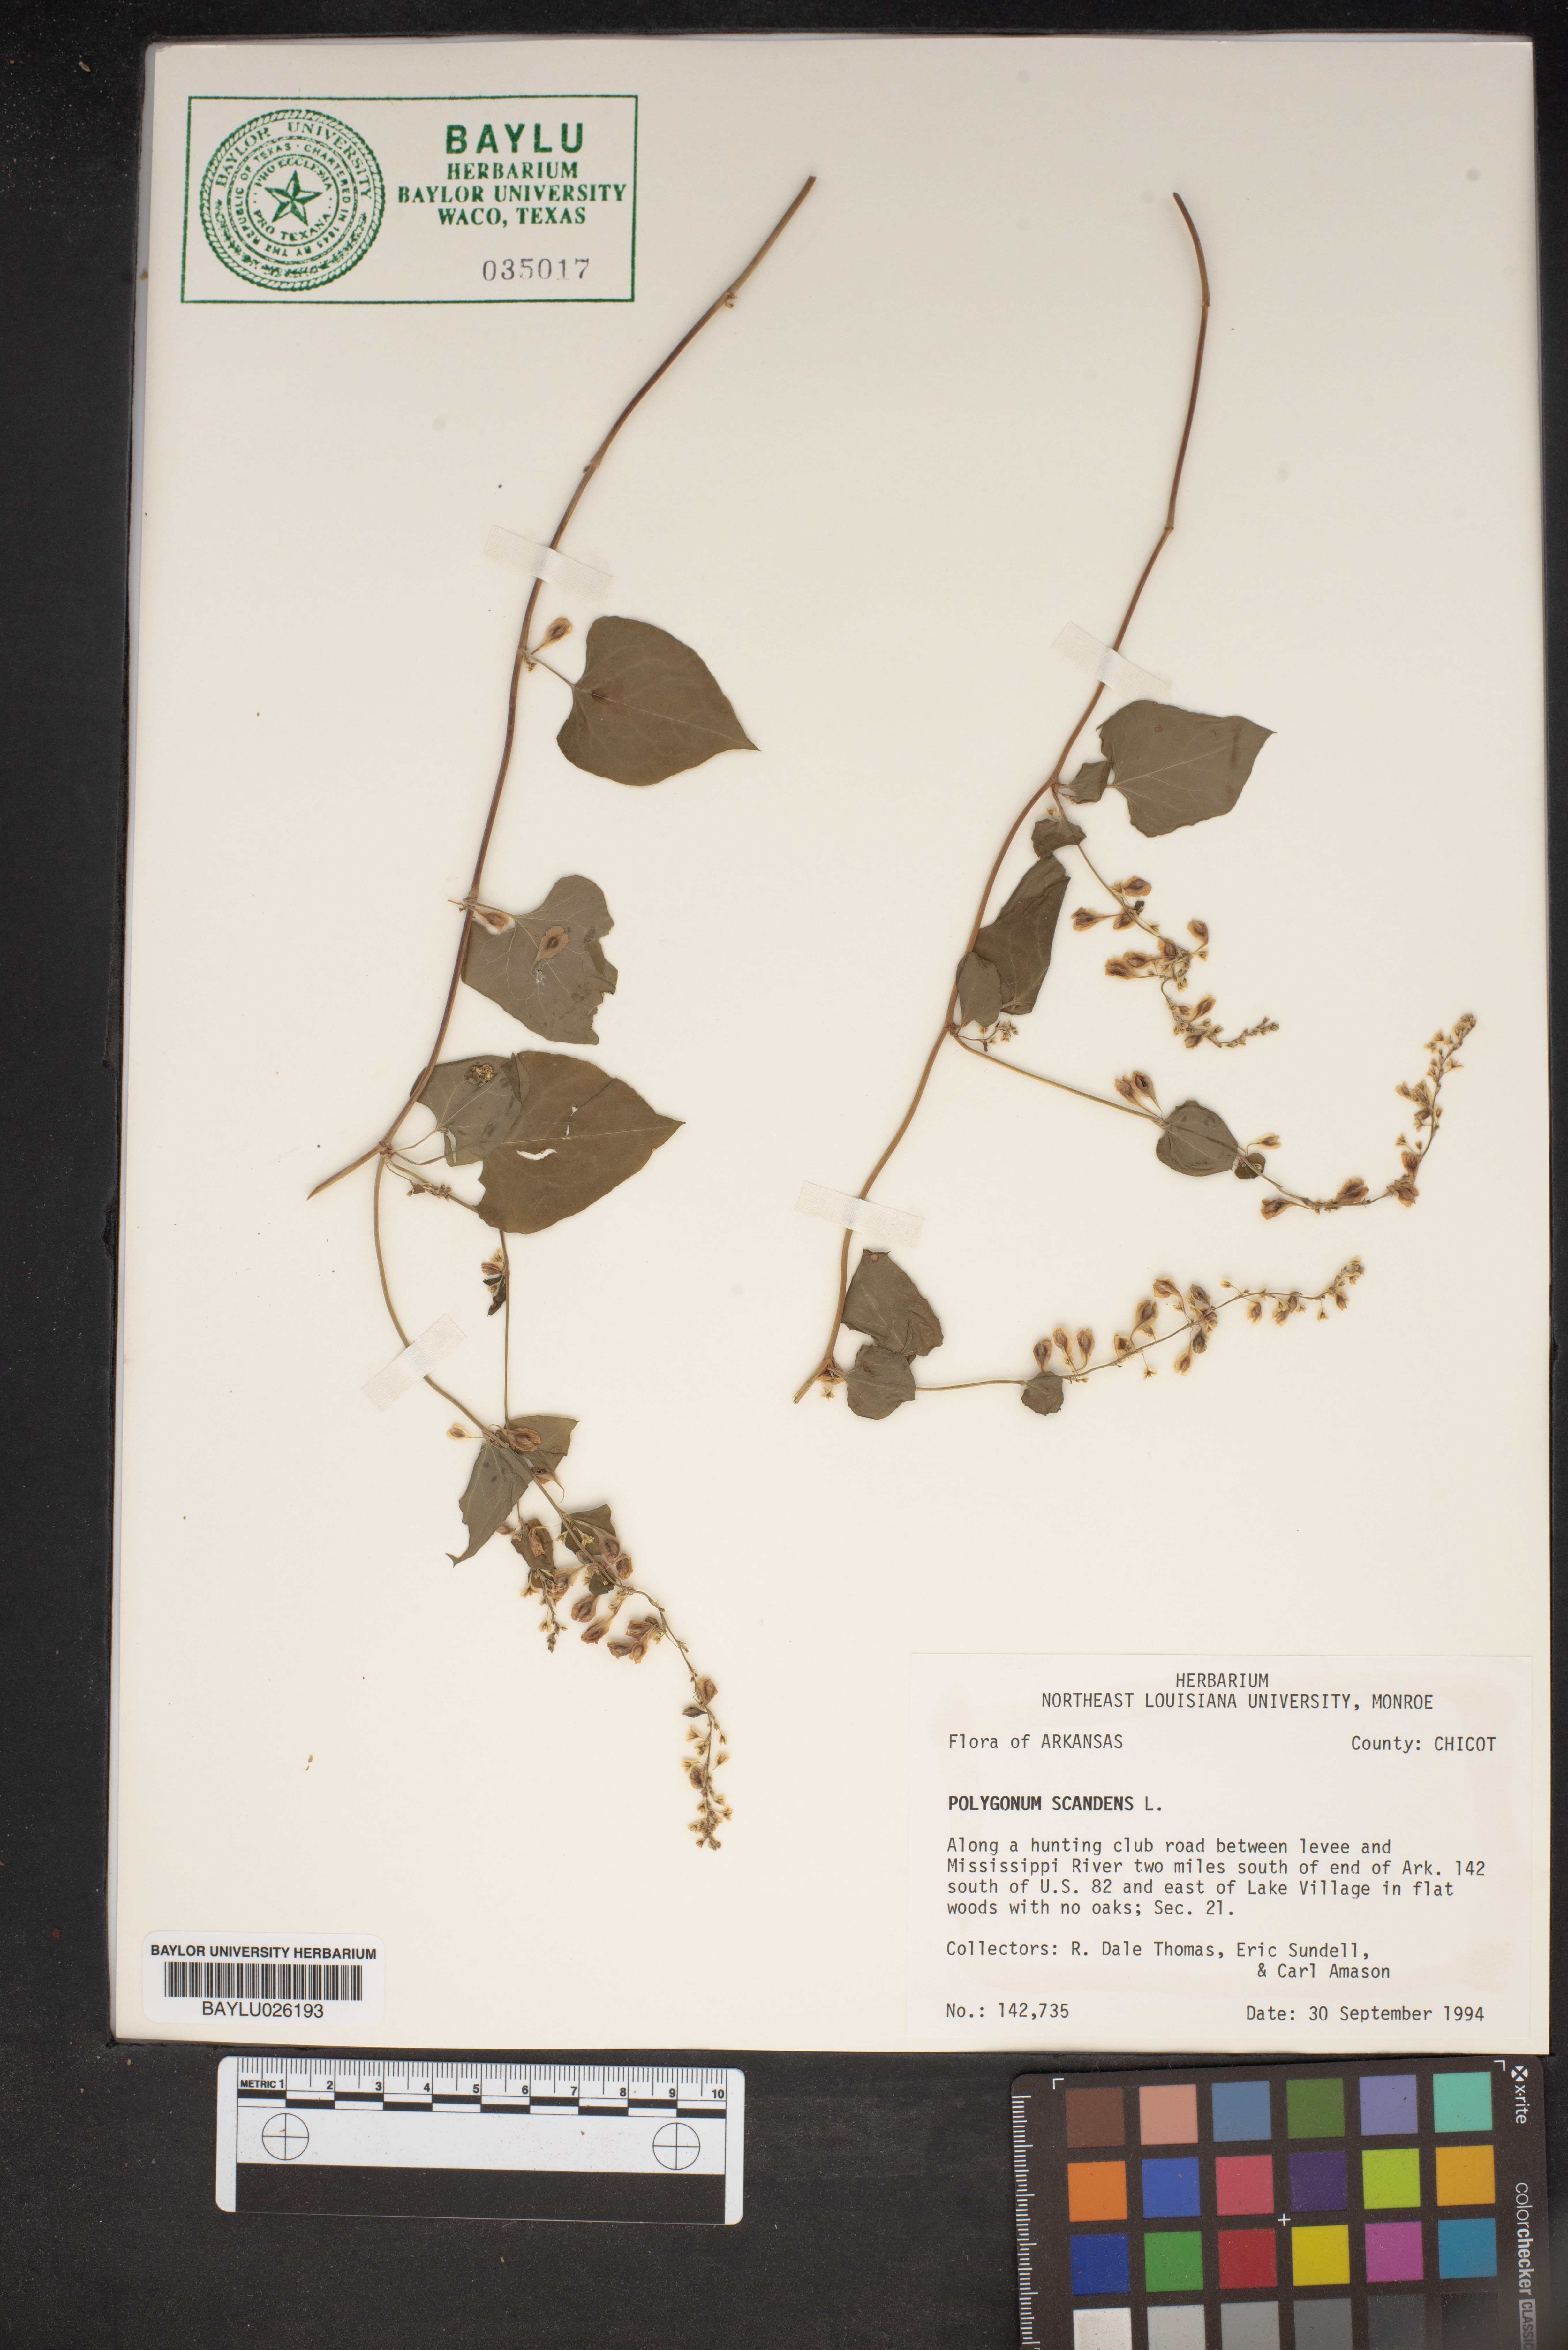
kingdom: Plantae
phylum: Tracheophyta
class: Magnoliopsida
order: Caryophyllales
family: Polygonaceae
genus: Fallopia
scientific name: Fallopia scandens
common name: Climbing false buckwheat
